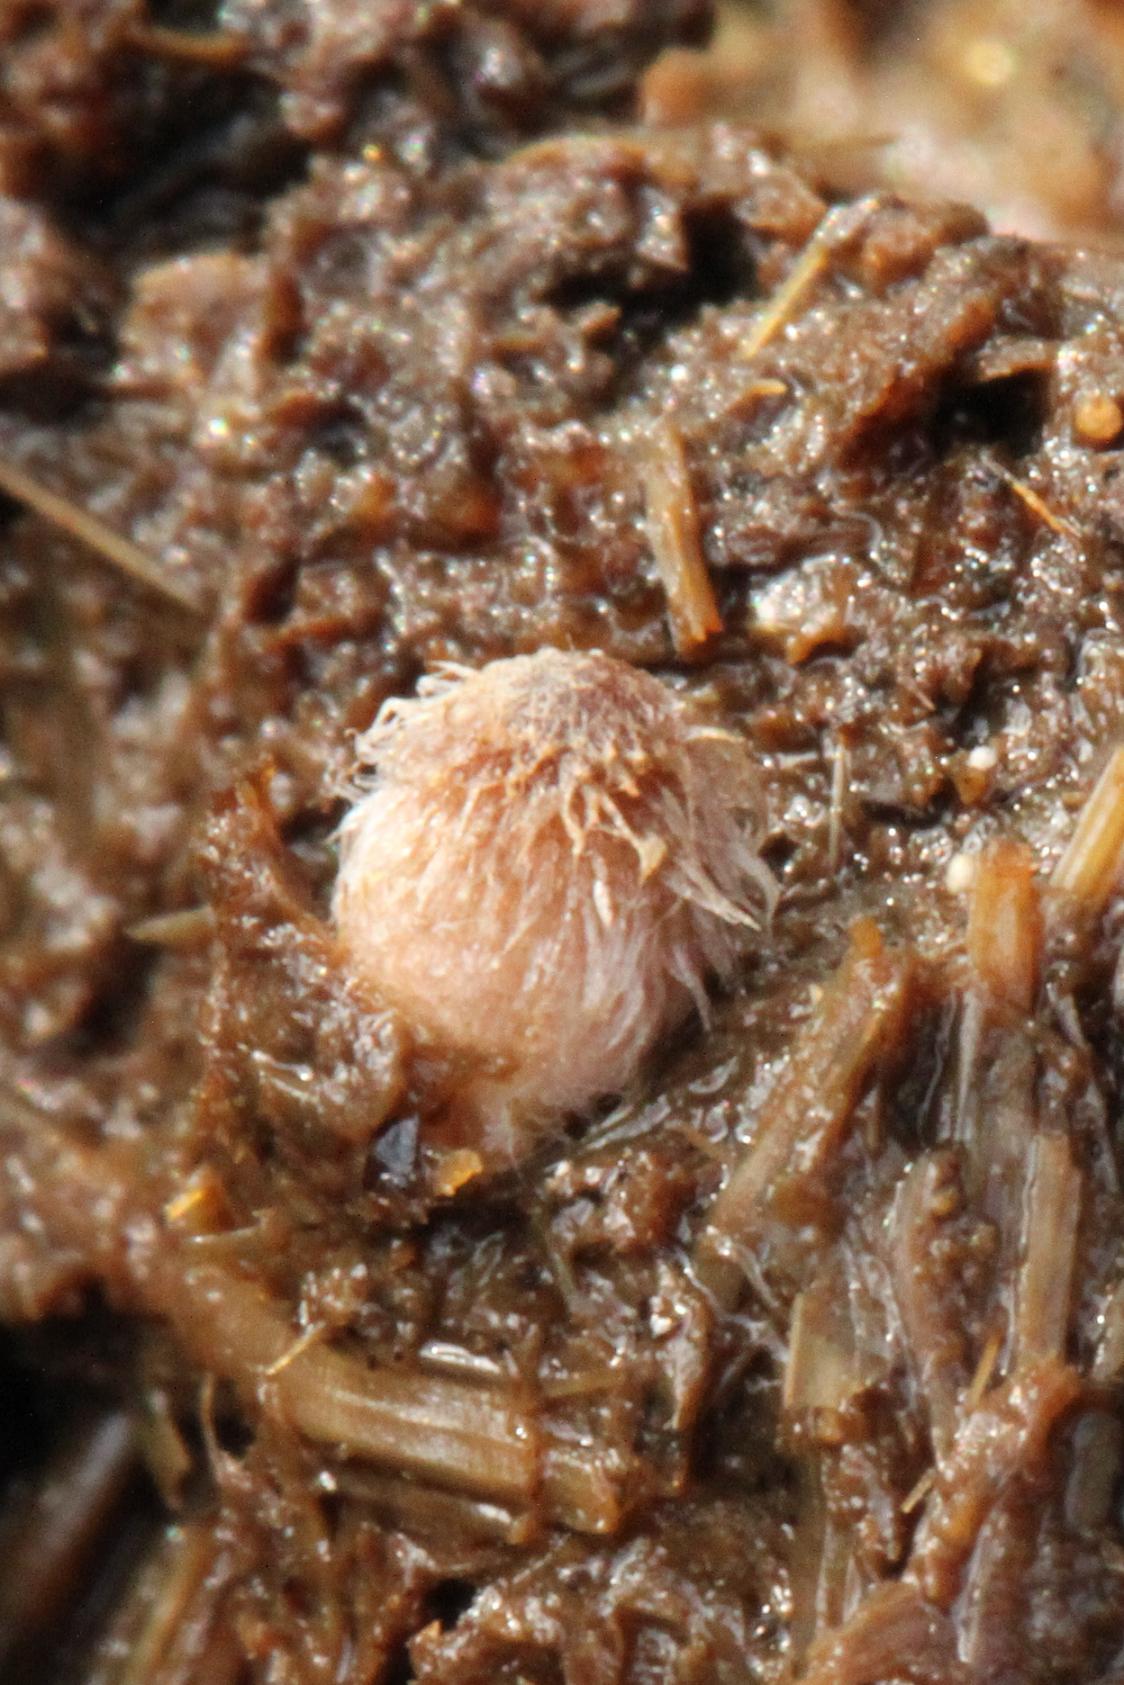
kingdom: Fungi
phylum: Basidiomycota
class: Agaricomycetes
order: Agaricales
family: Psathyrellaceae
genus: Coprinopsis
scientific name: Coprinopsis villosa
